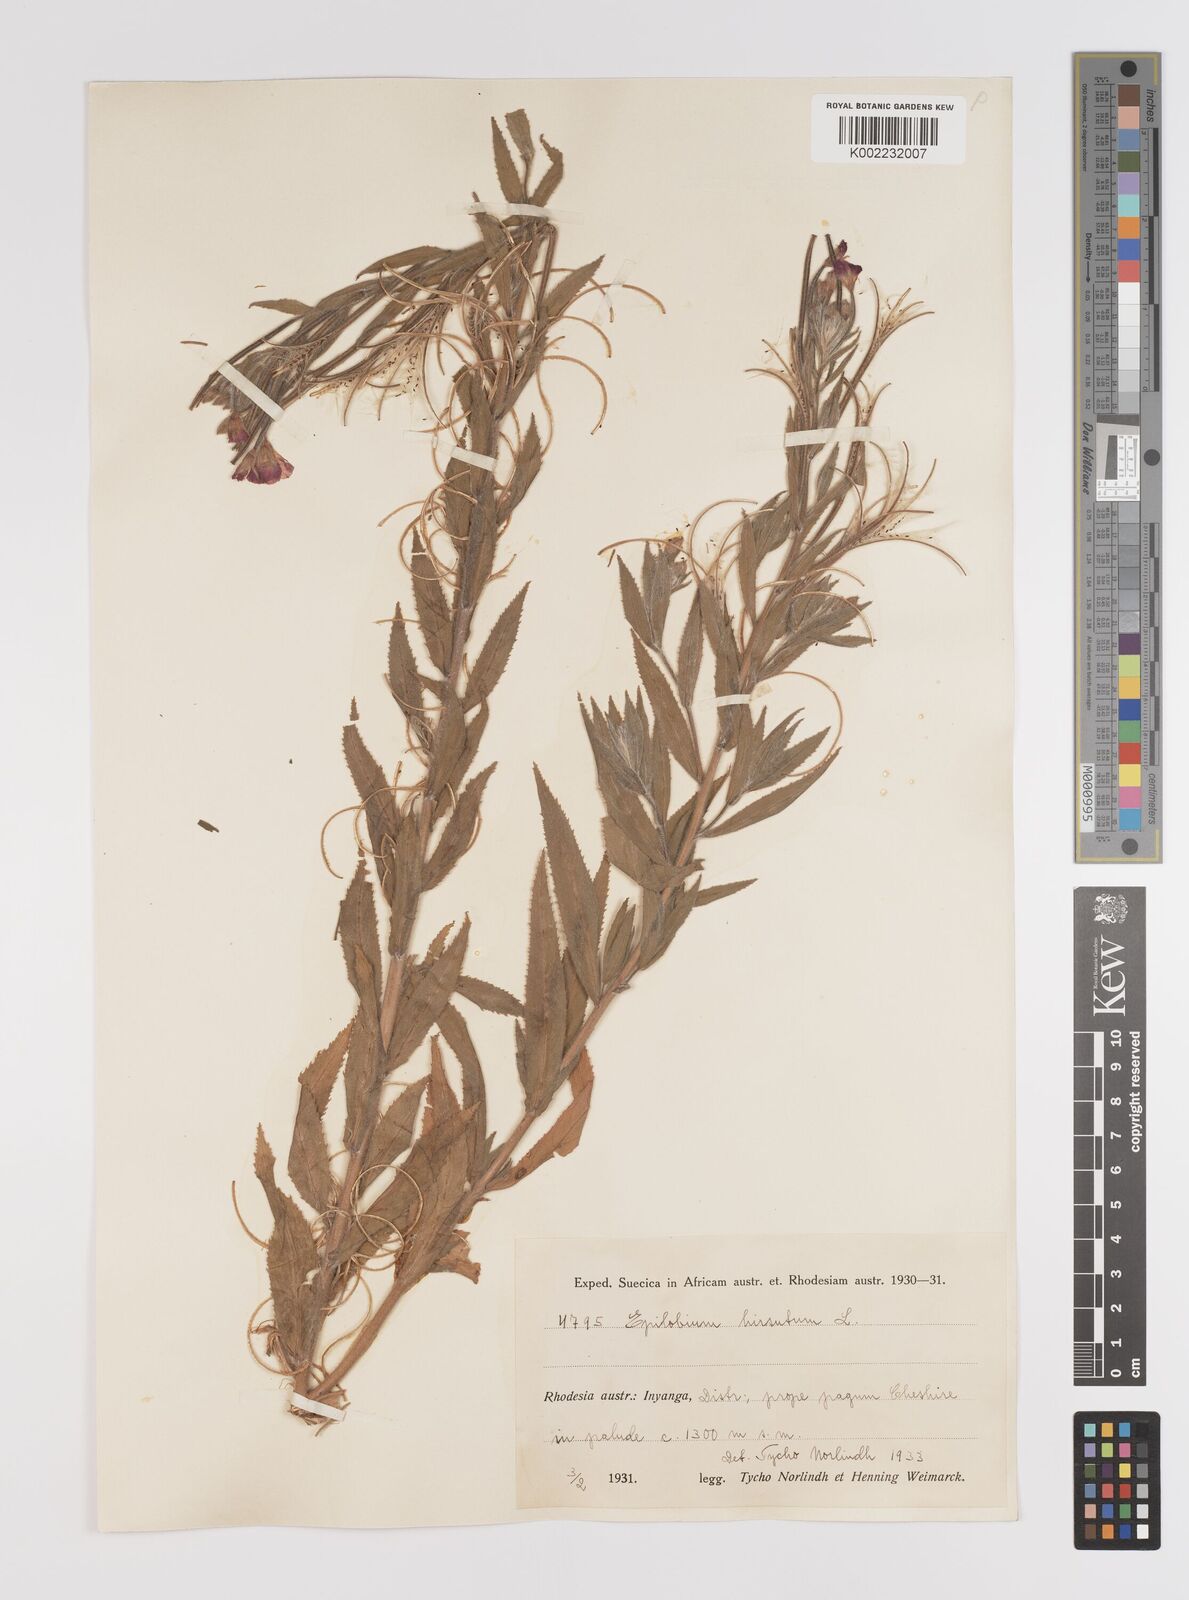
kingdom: Plantae
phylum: Tracheophyta
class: Magnoliopsida
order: Myrtales
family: Onagraceae
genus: Epilobium
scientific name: Epilobium hirsutum
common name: Great willowherb
